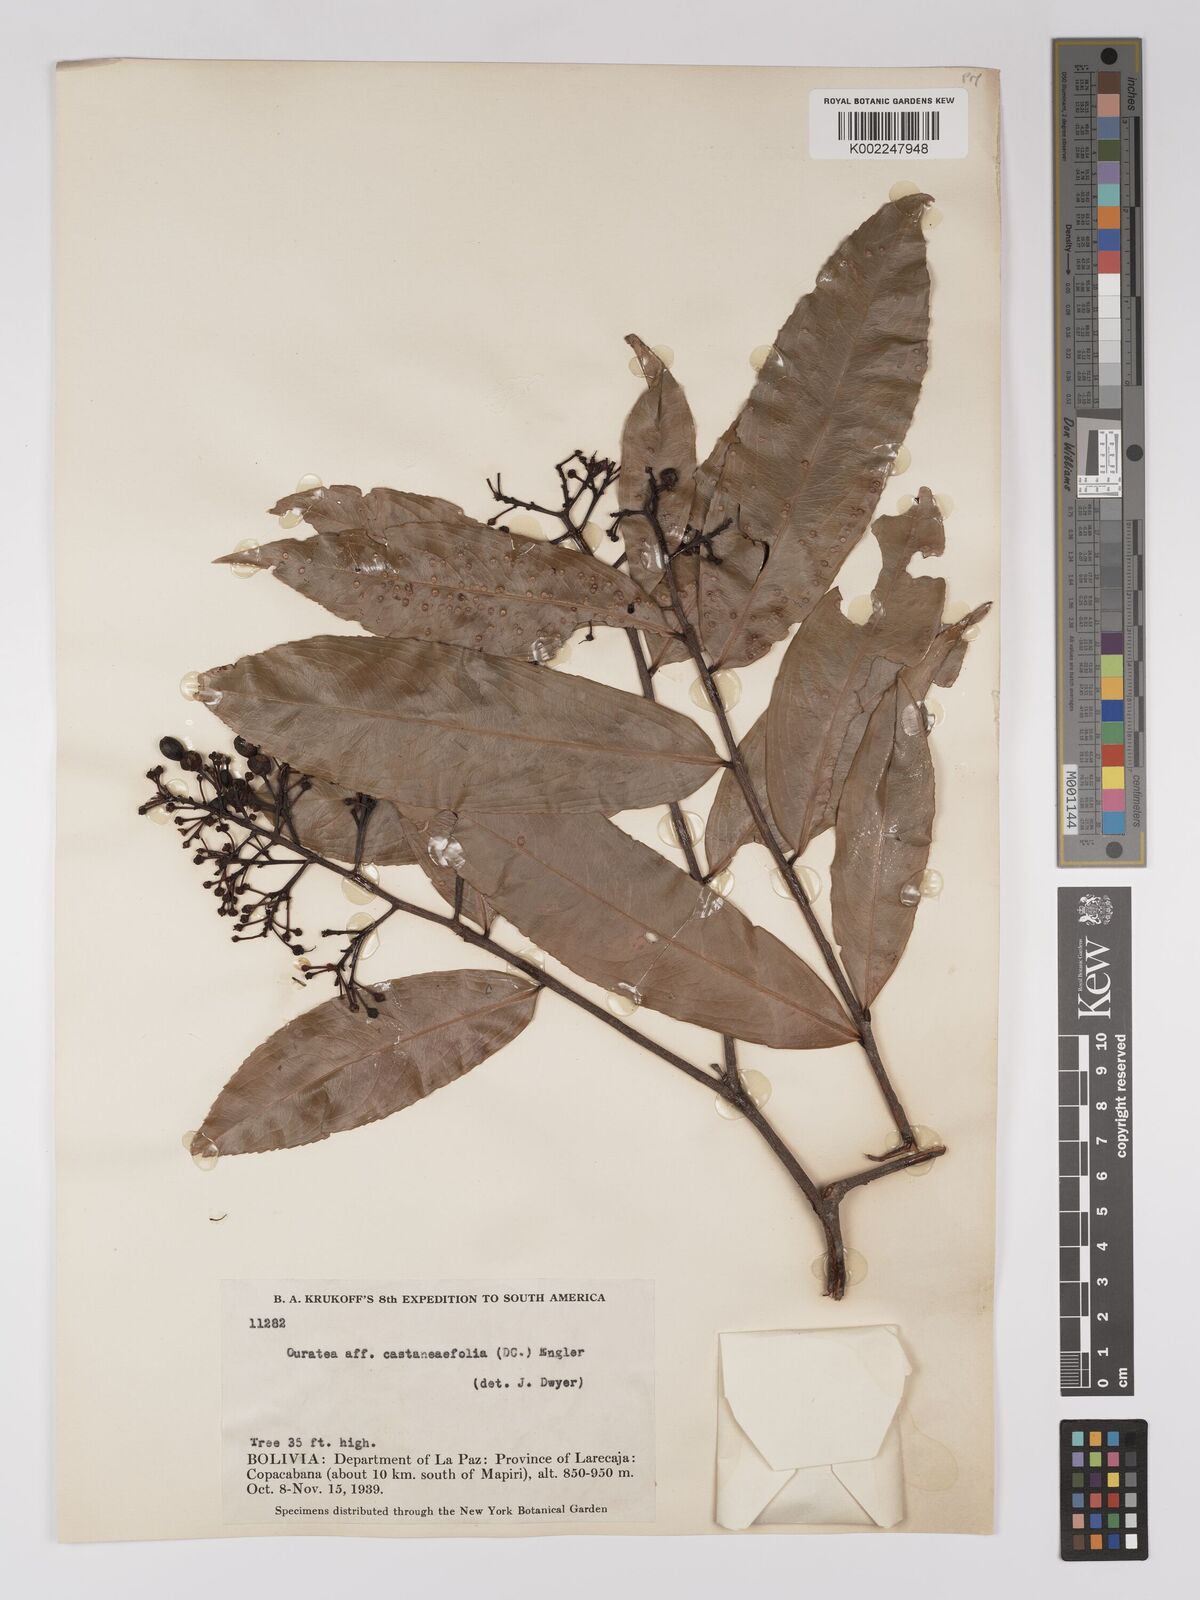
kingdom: Plantae
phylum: Tracheophyta
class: Magnoliopsida
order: Malpighiales
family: Ochnaceae
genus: Ouratea
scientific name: Ouratea castaneifolia
